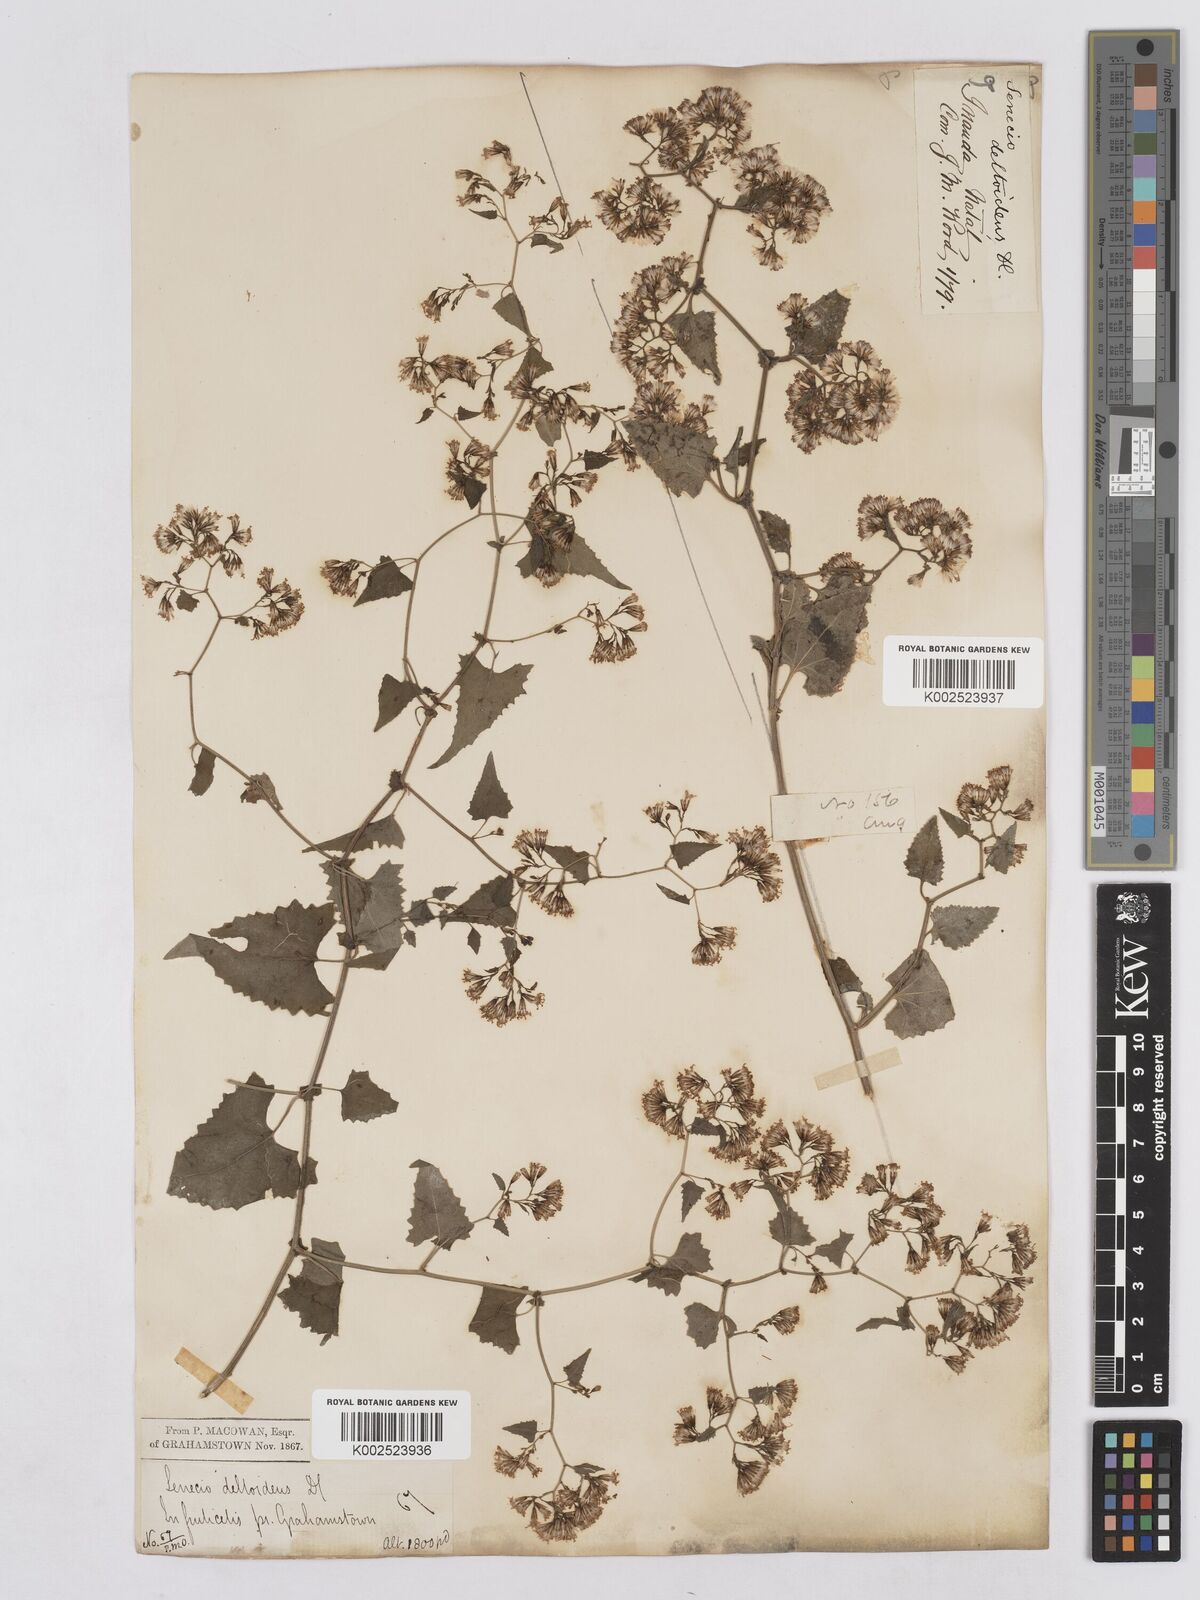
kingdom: Plantae
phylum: Tracheophyta
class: Magnoliopsida
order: Asterales
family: Asteraceae
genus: Senecio
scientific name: Senecio deltoideus
